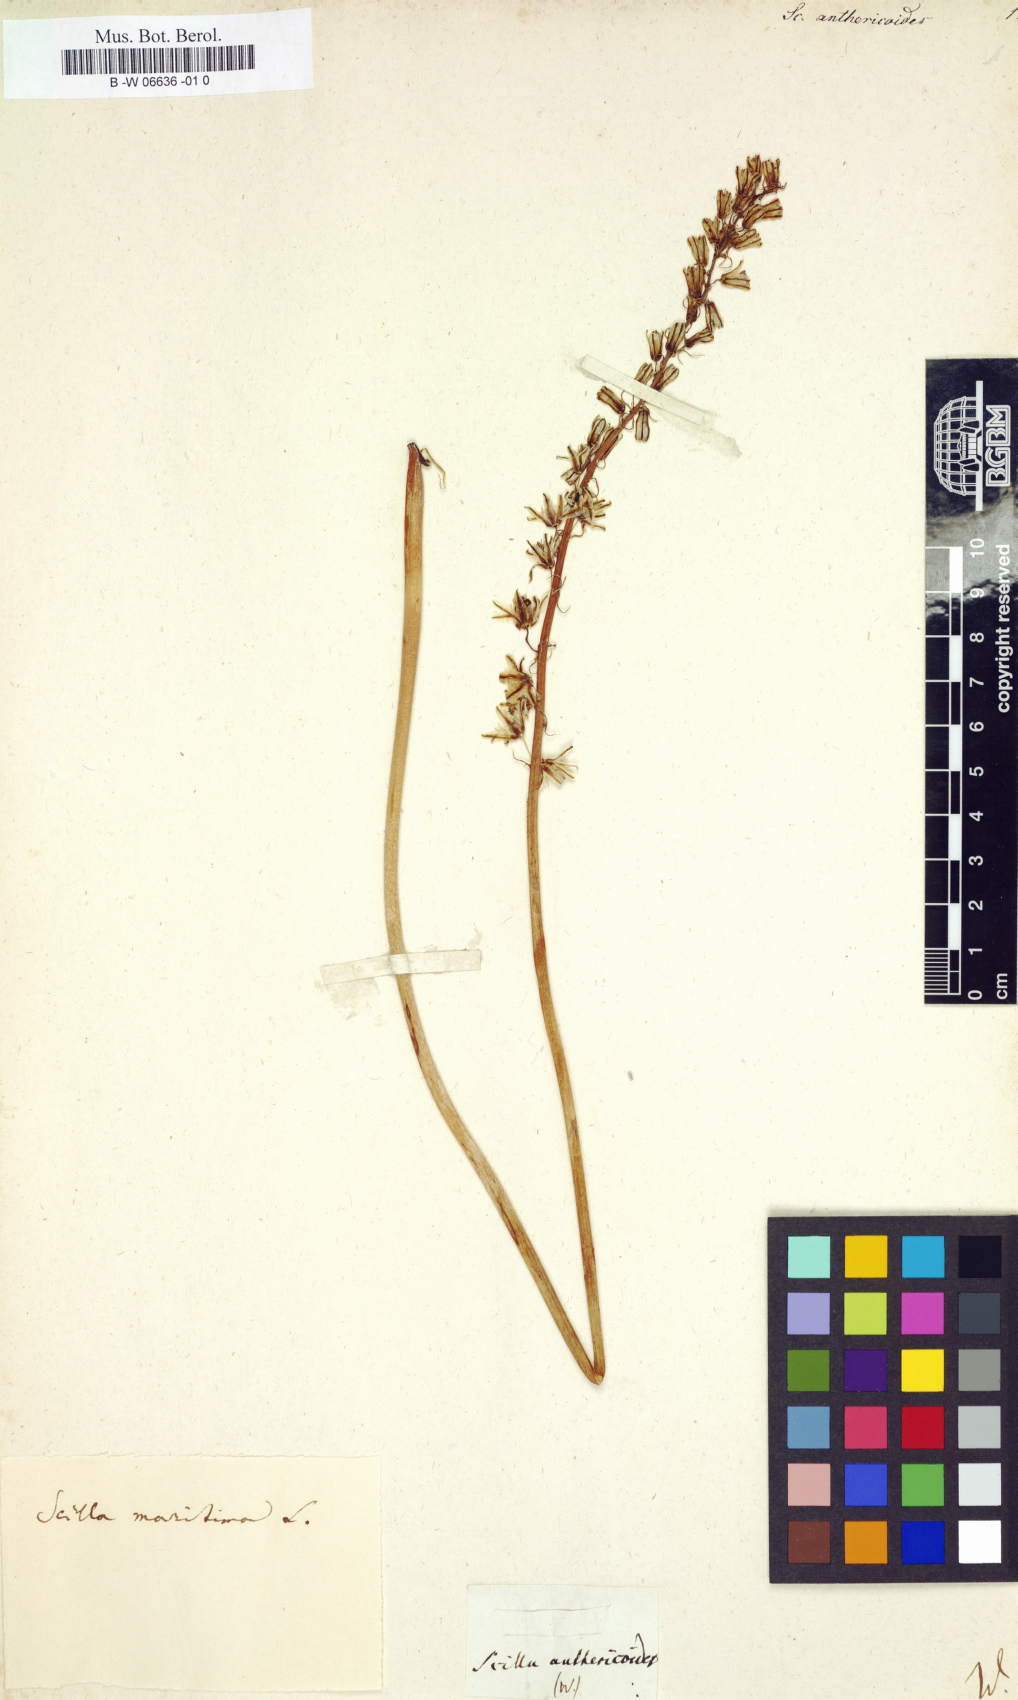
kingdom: Plantae
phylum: Tracheophyta
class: Liliopsida
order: Asparagales
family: Asparagaceae
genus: Scilla
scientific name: Scilla anthericoides
